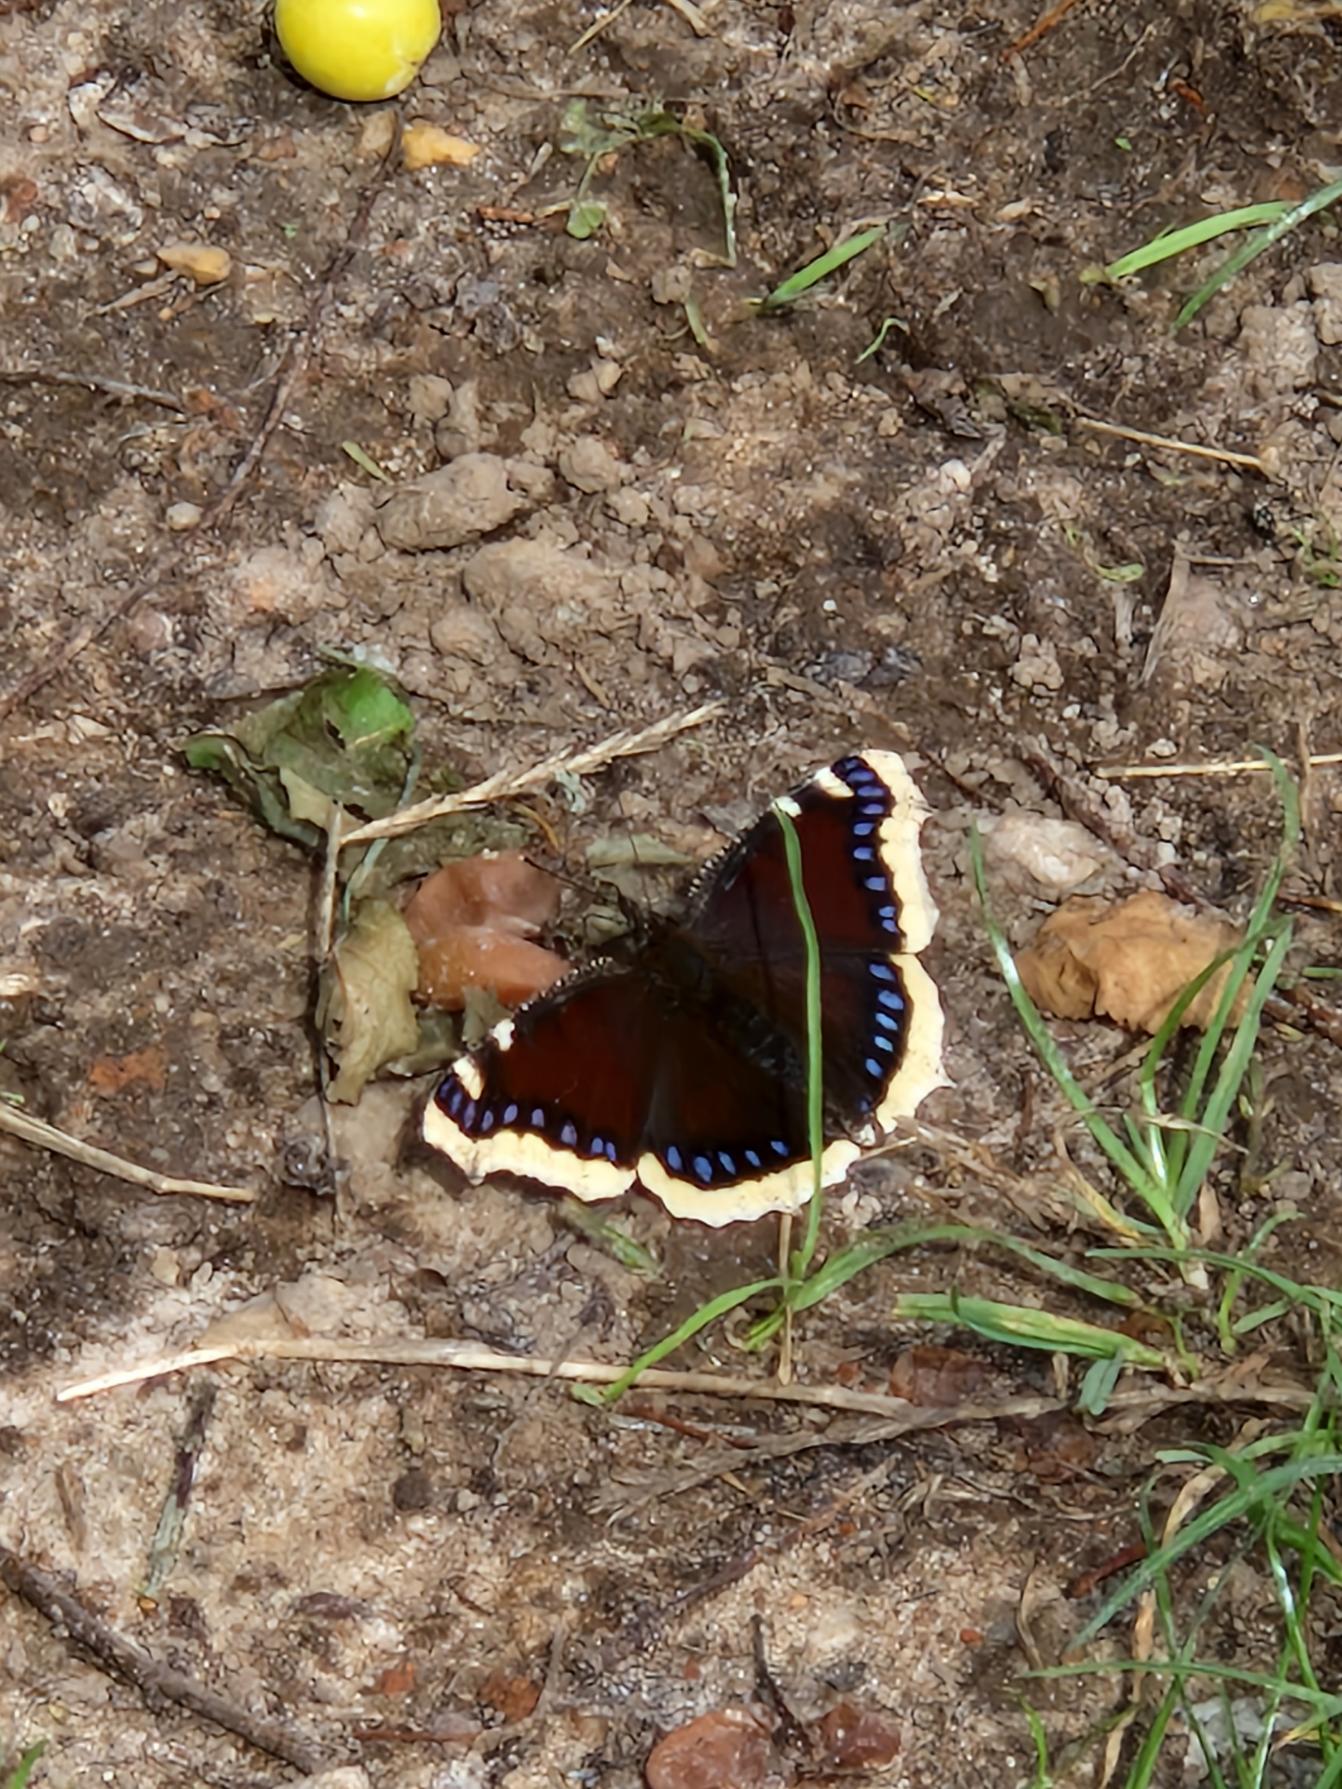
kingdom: Animalia
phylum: Arthropoda
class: Insecta
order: Lepidoptera
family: Nymphalidae
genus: Nymphalis
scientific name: Nymphalis antiopa
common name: Sørgekåbe
